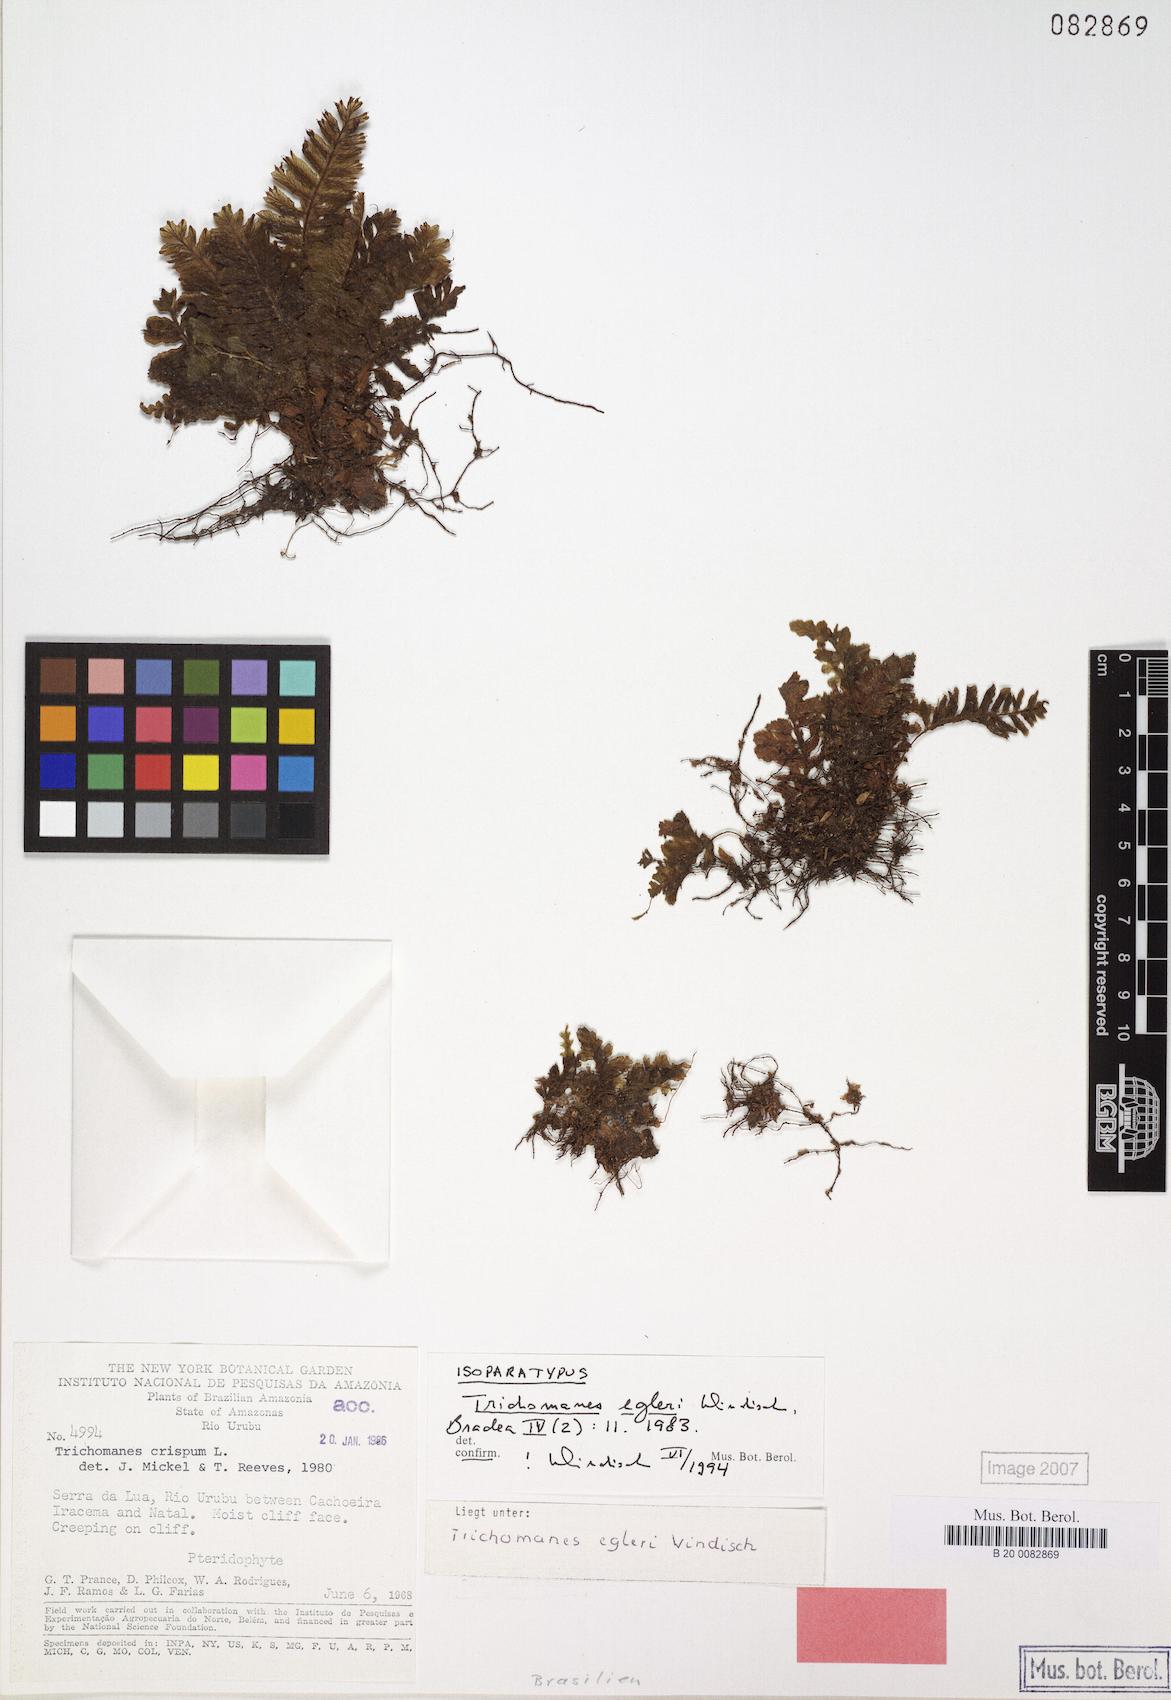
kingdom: Plantae
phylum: Tracheophyta
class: Polypodiopsida
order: Hymenophyllales
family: Hymenophyllaceae
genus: Trichomanes
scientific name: Trichomanes egleri
